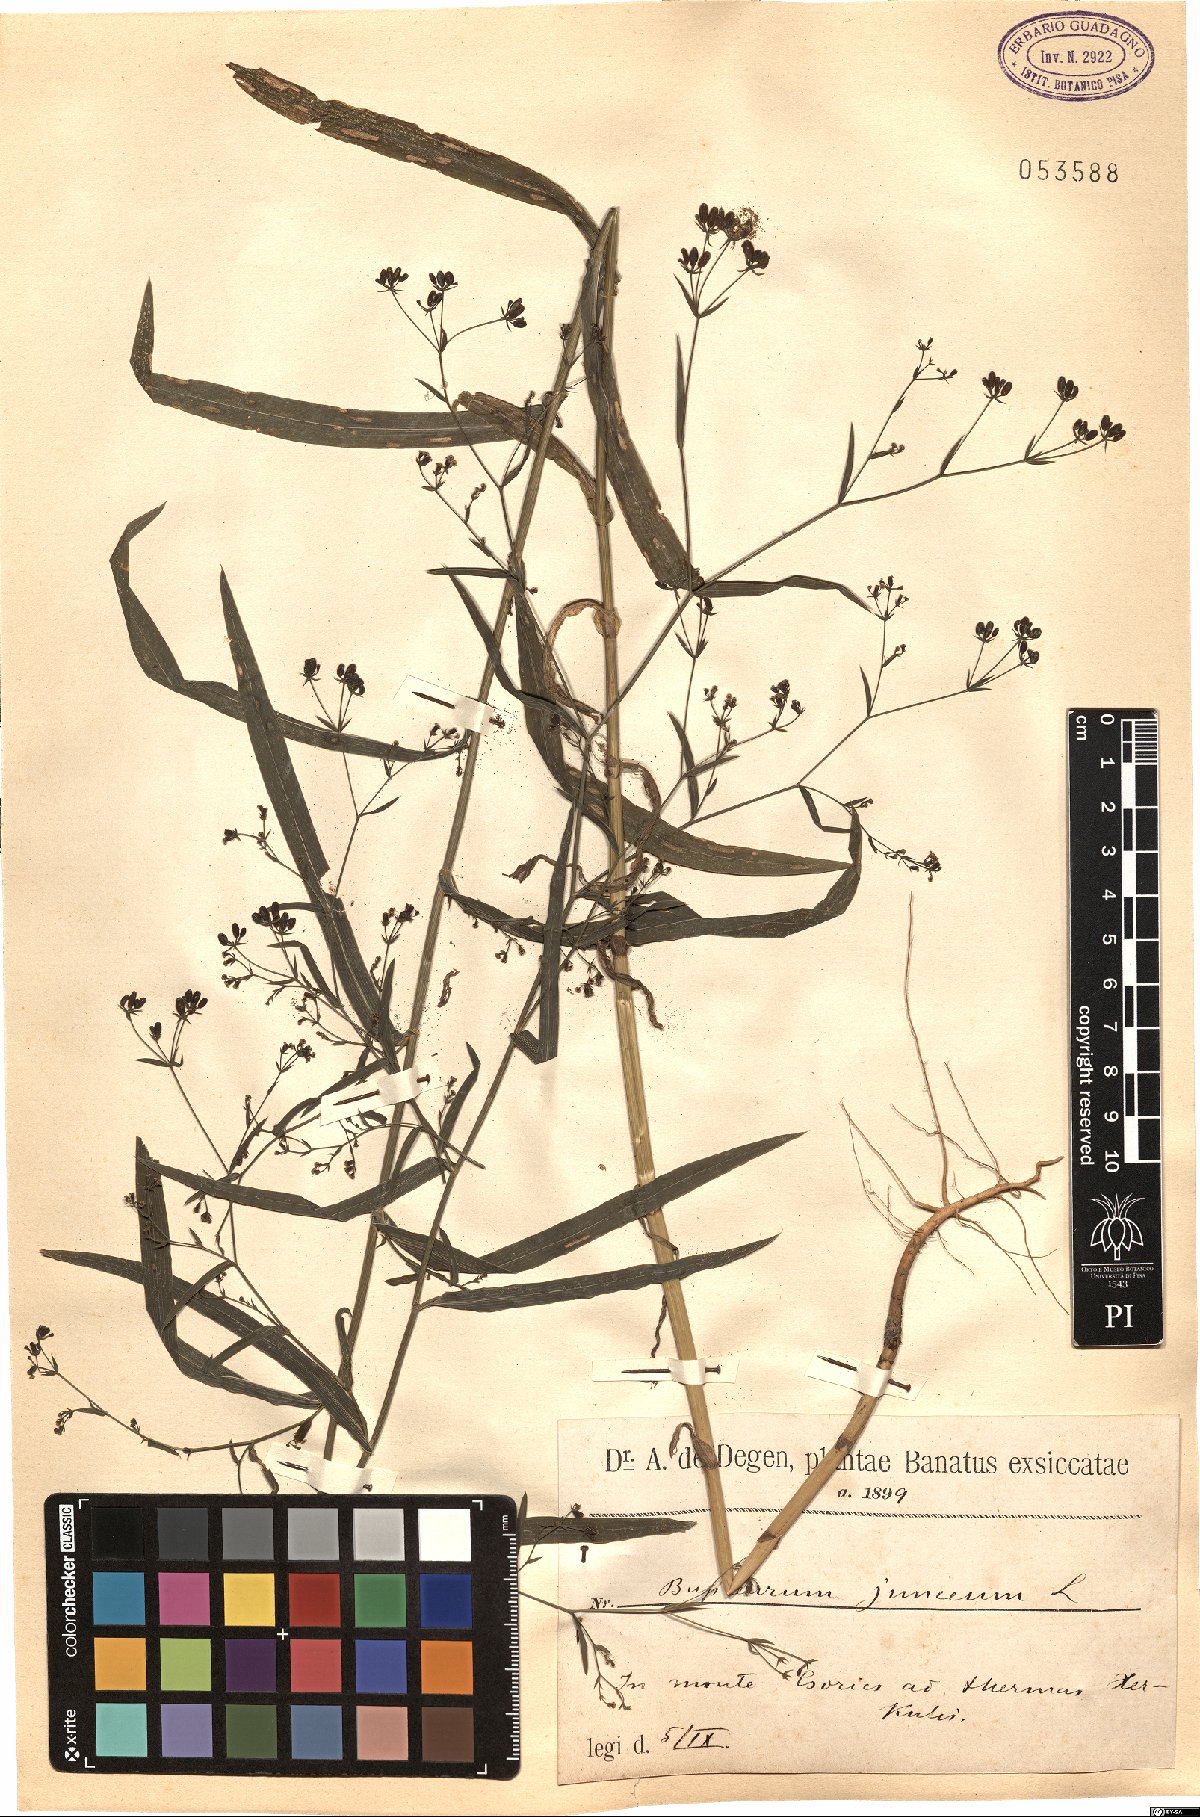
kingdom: Plantae
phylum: Tracheophyta
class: Magnoliopsida
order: Apiales
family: Apiaceae
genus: Bupleurum
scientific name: Bupleurum praealtum
